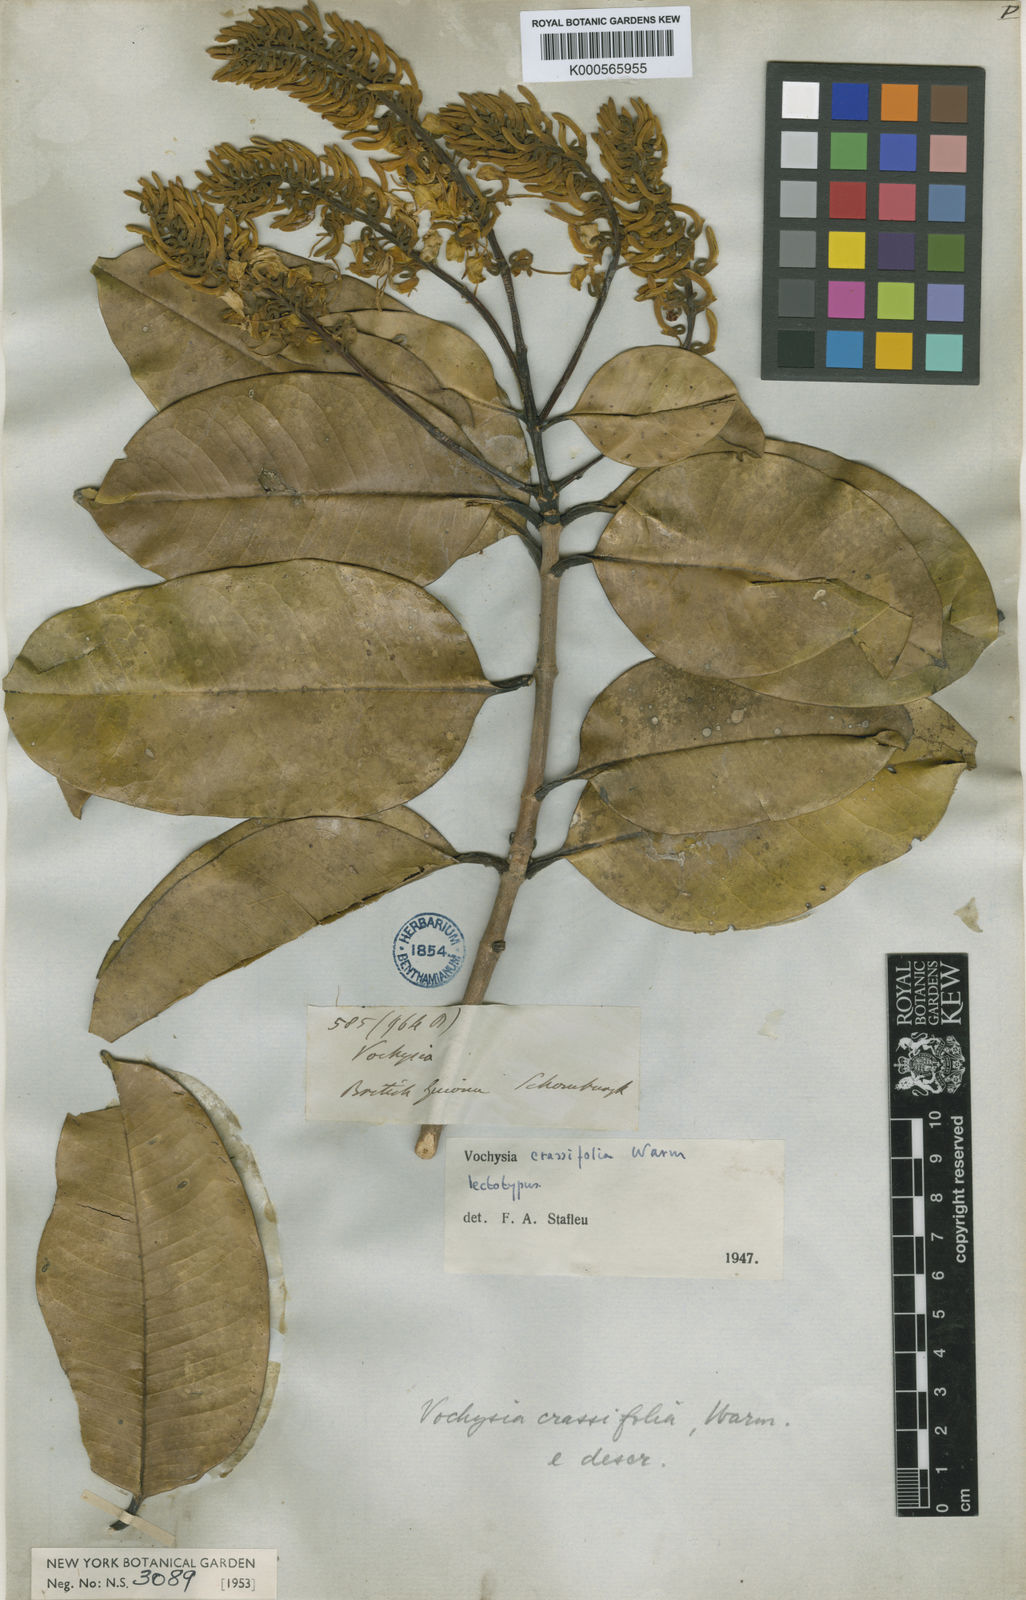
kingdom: Plantae
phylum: Tracheophyta
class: Magnoliopsida
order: Myrtales
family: Vochysiaceae
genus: Vochysia
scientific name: Vochysia crassifolia
